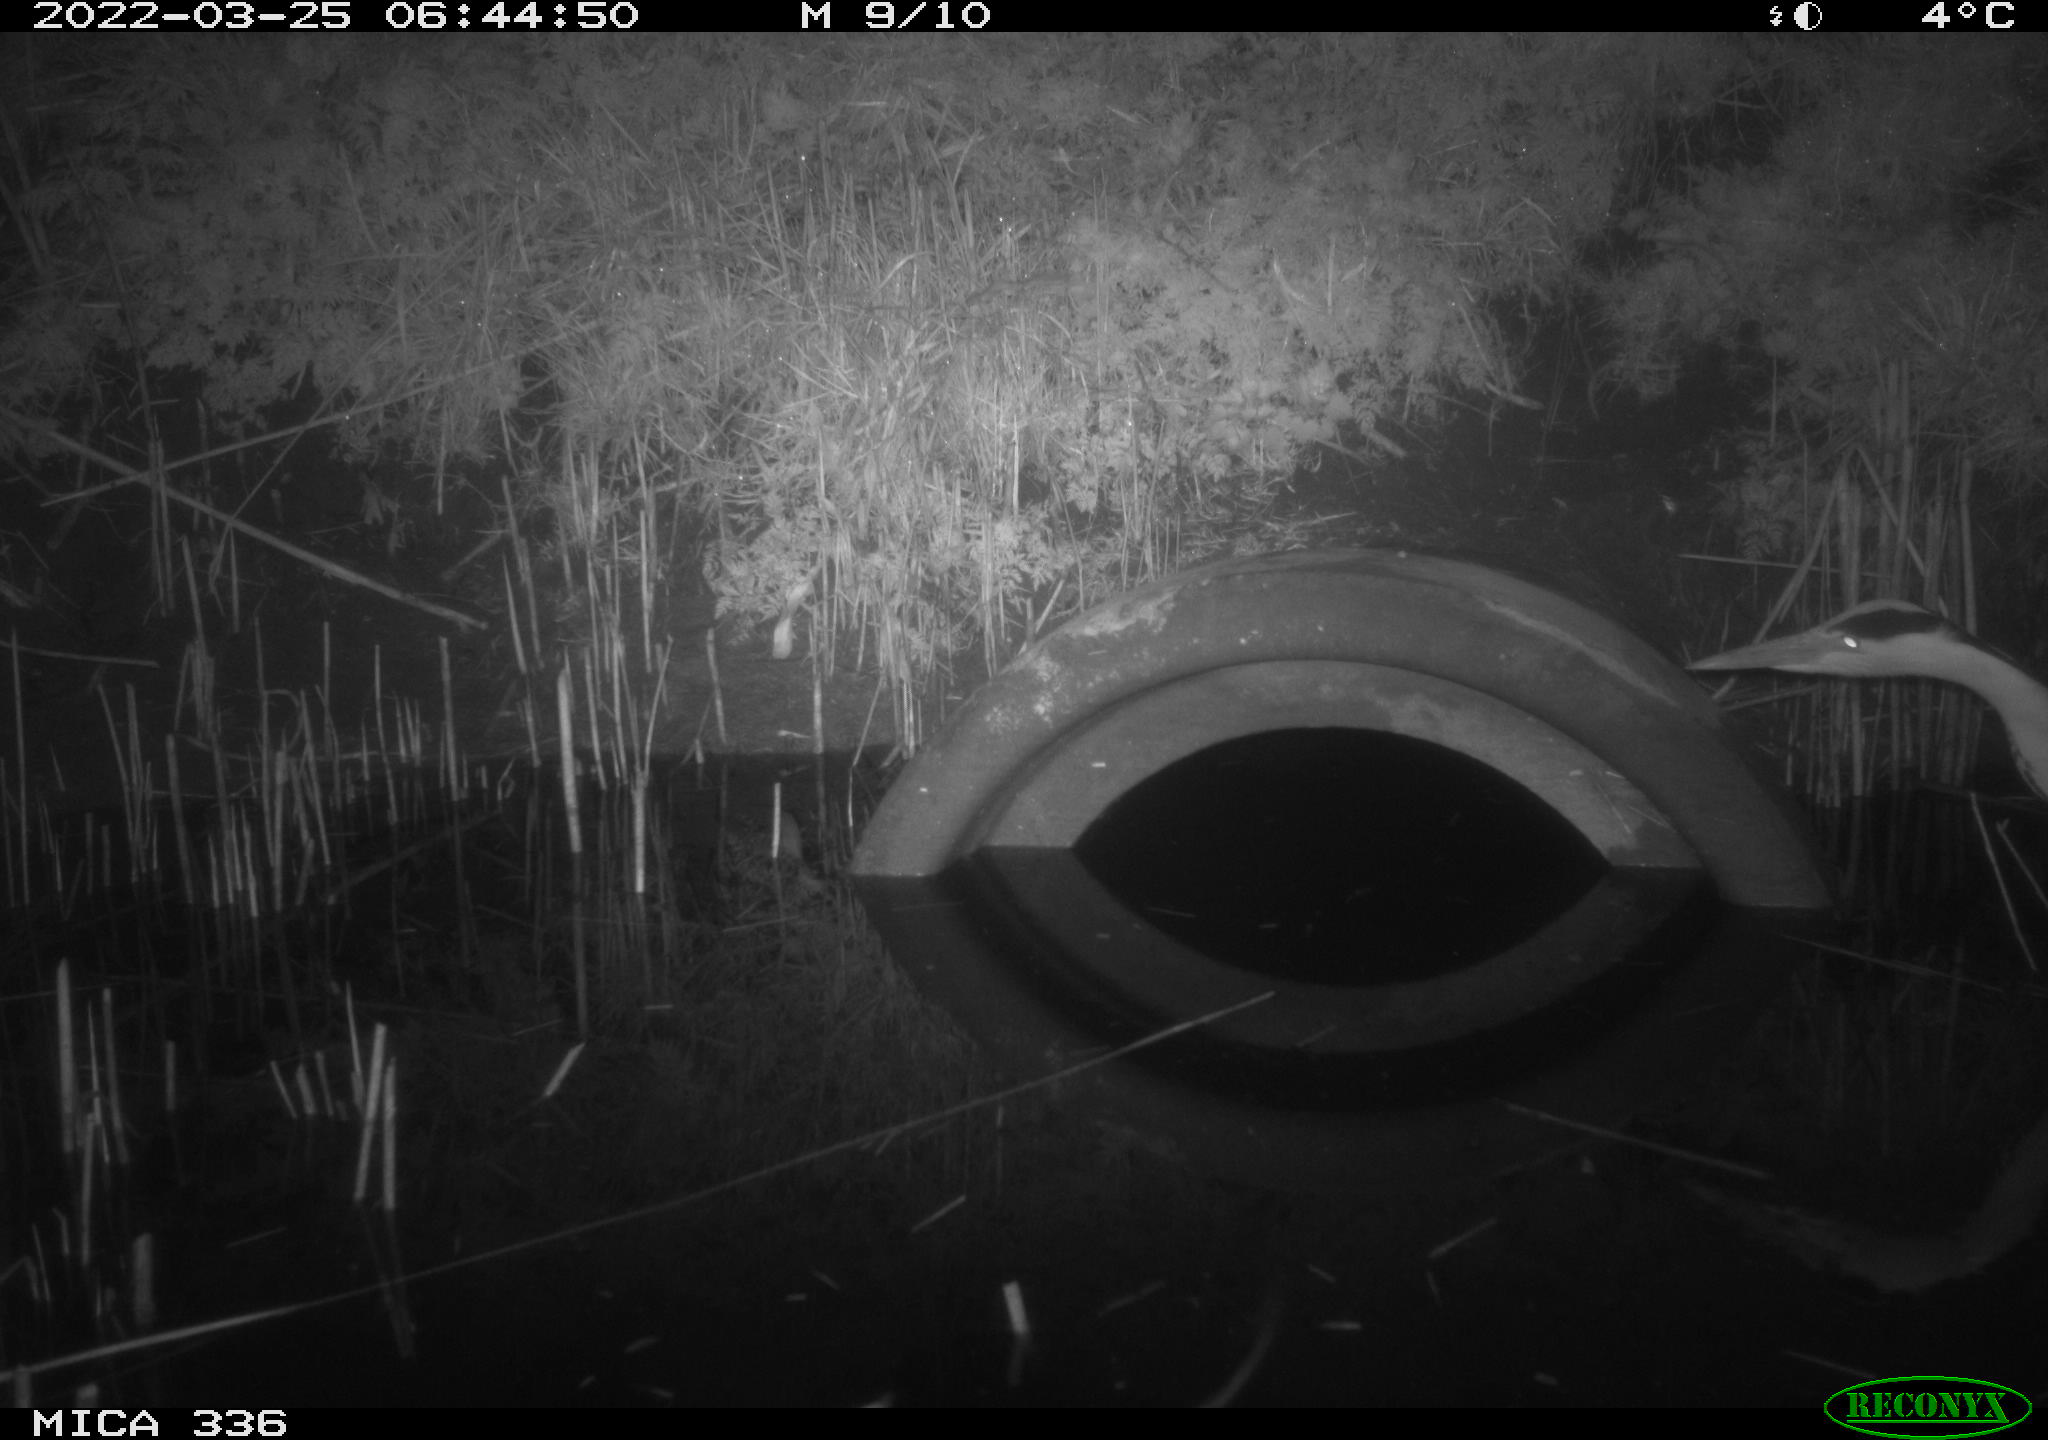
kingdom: Animalia
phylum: Chordata
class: Aves
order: Pelecaniformes
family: Ardeidae
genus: Ardea
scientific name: Ardea cinerea
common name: Grey heron
